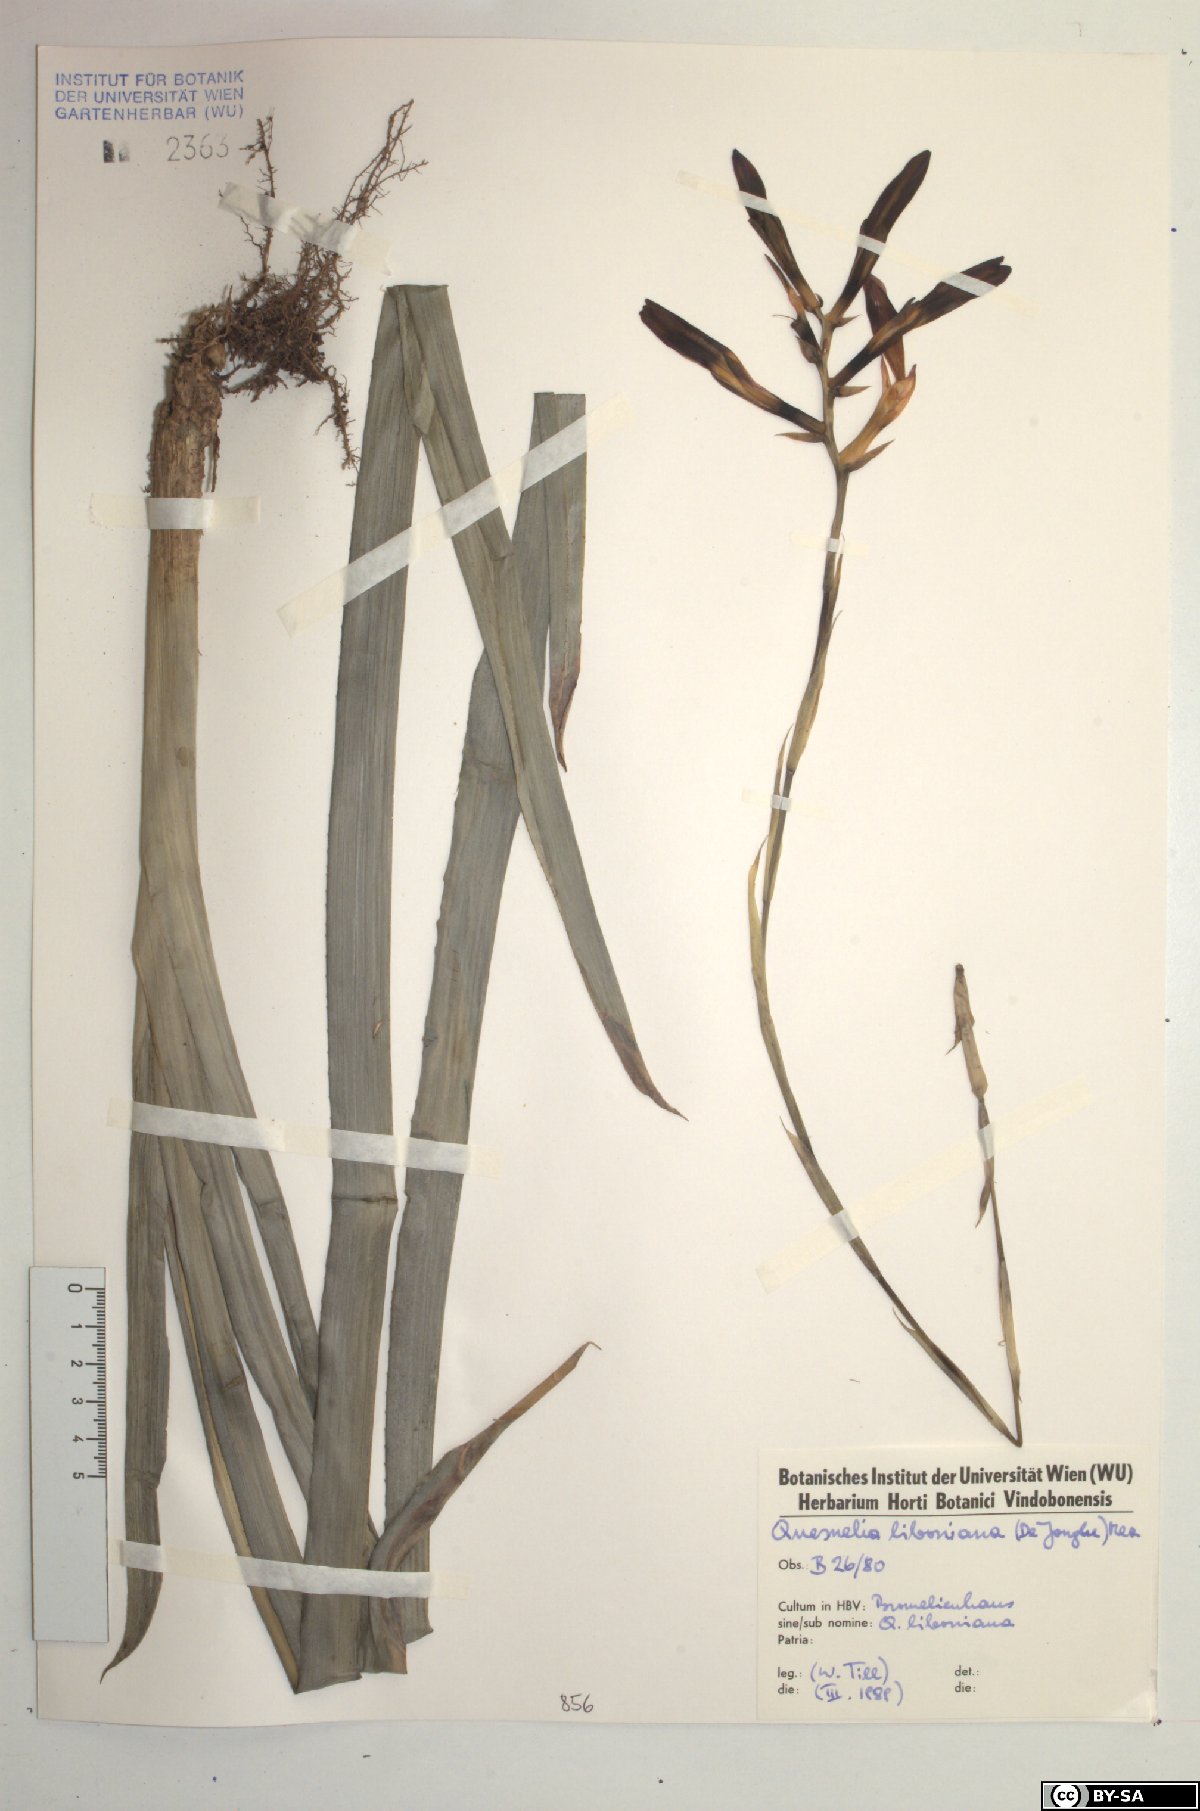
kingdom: Plantae
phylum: Tracheophyta
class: Liliopsida
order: Poales
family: Bromeliaceae
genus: Quesnelia
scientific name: Quesnelia liboniana
